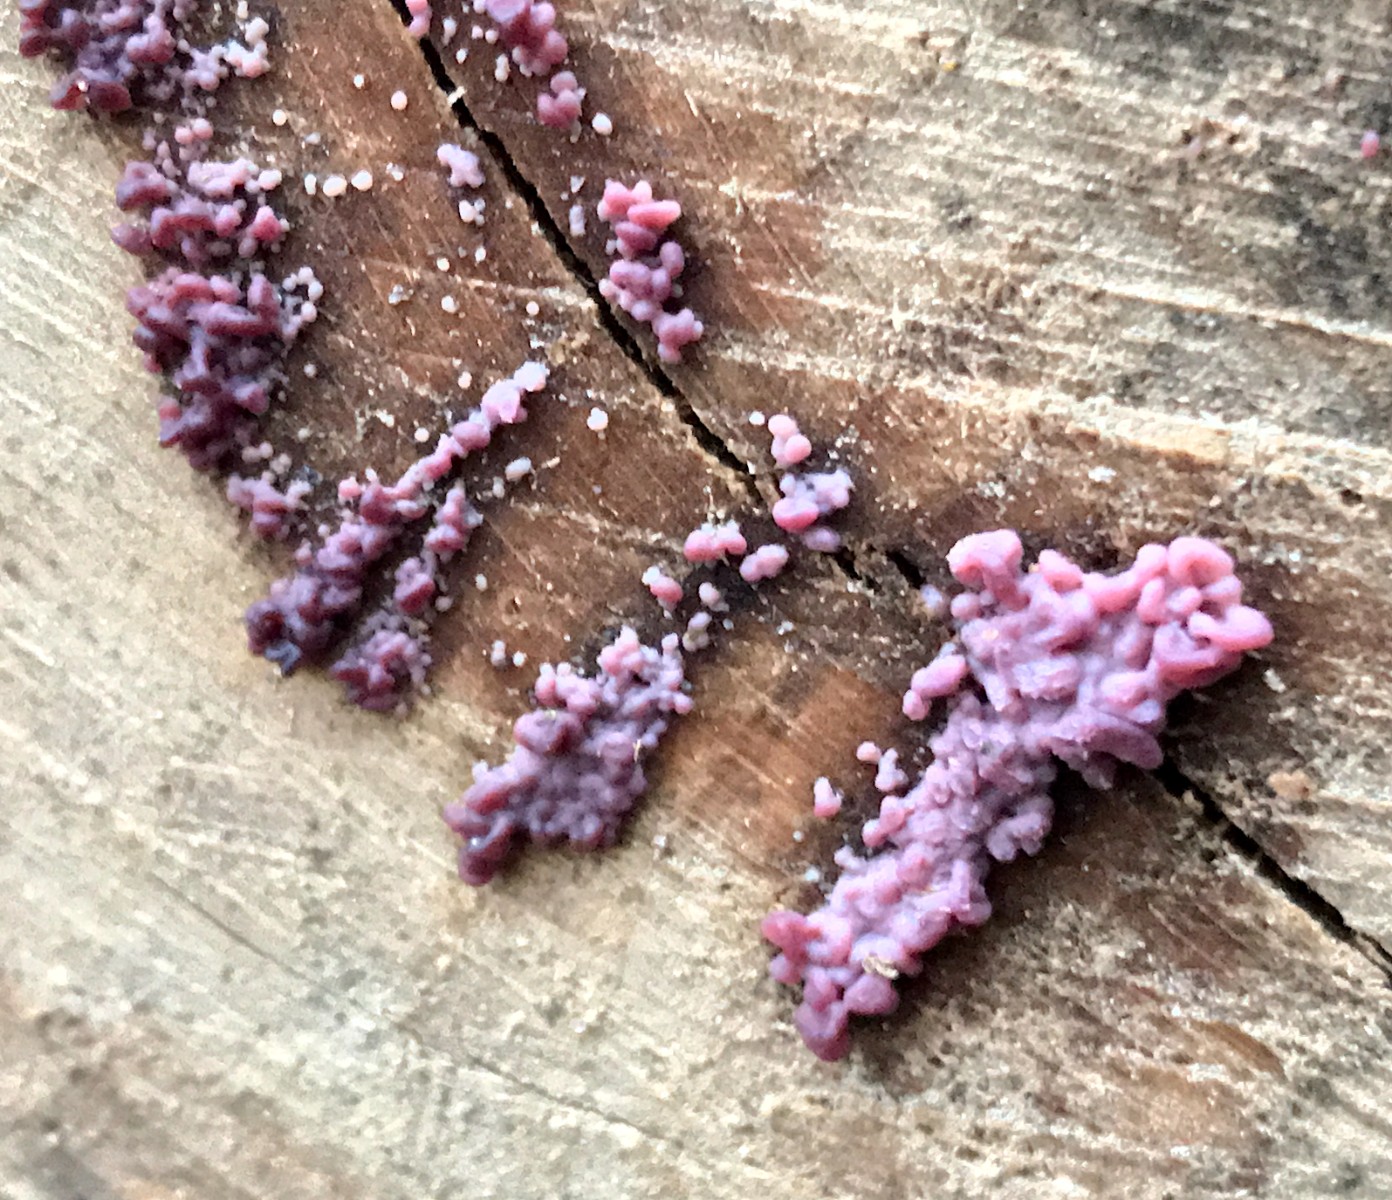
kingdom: Fungi
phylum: Ascomycota
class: Leotiomycetes
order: Helotiales
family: Gelatinodiscaceae
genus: Ascocoryne
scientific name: Ascocoryne sarcoides
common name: rødlilla sejskive
